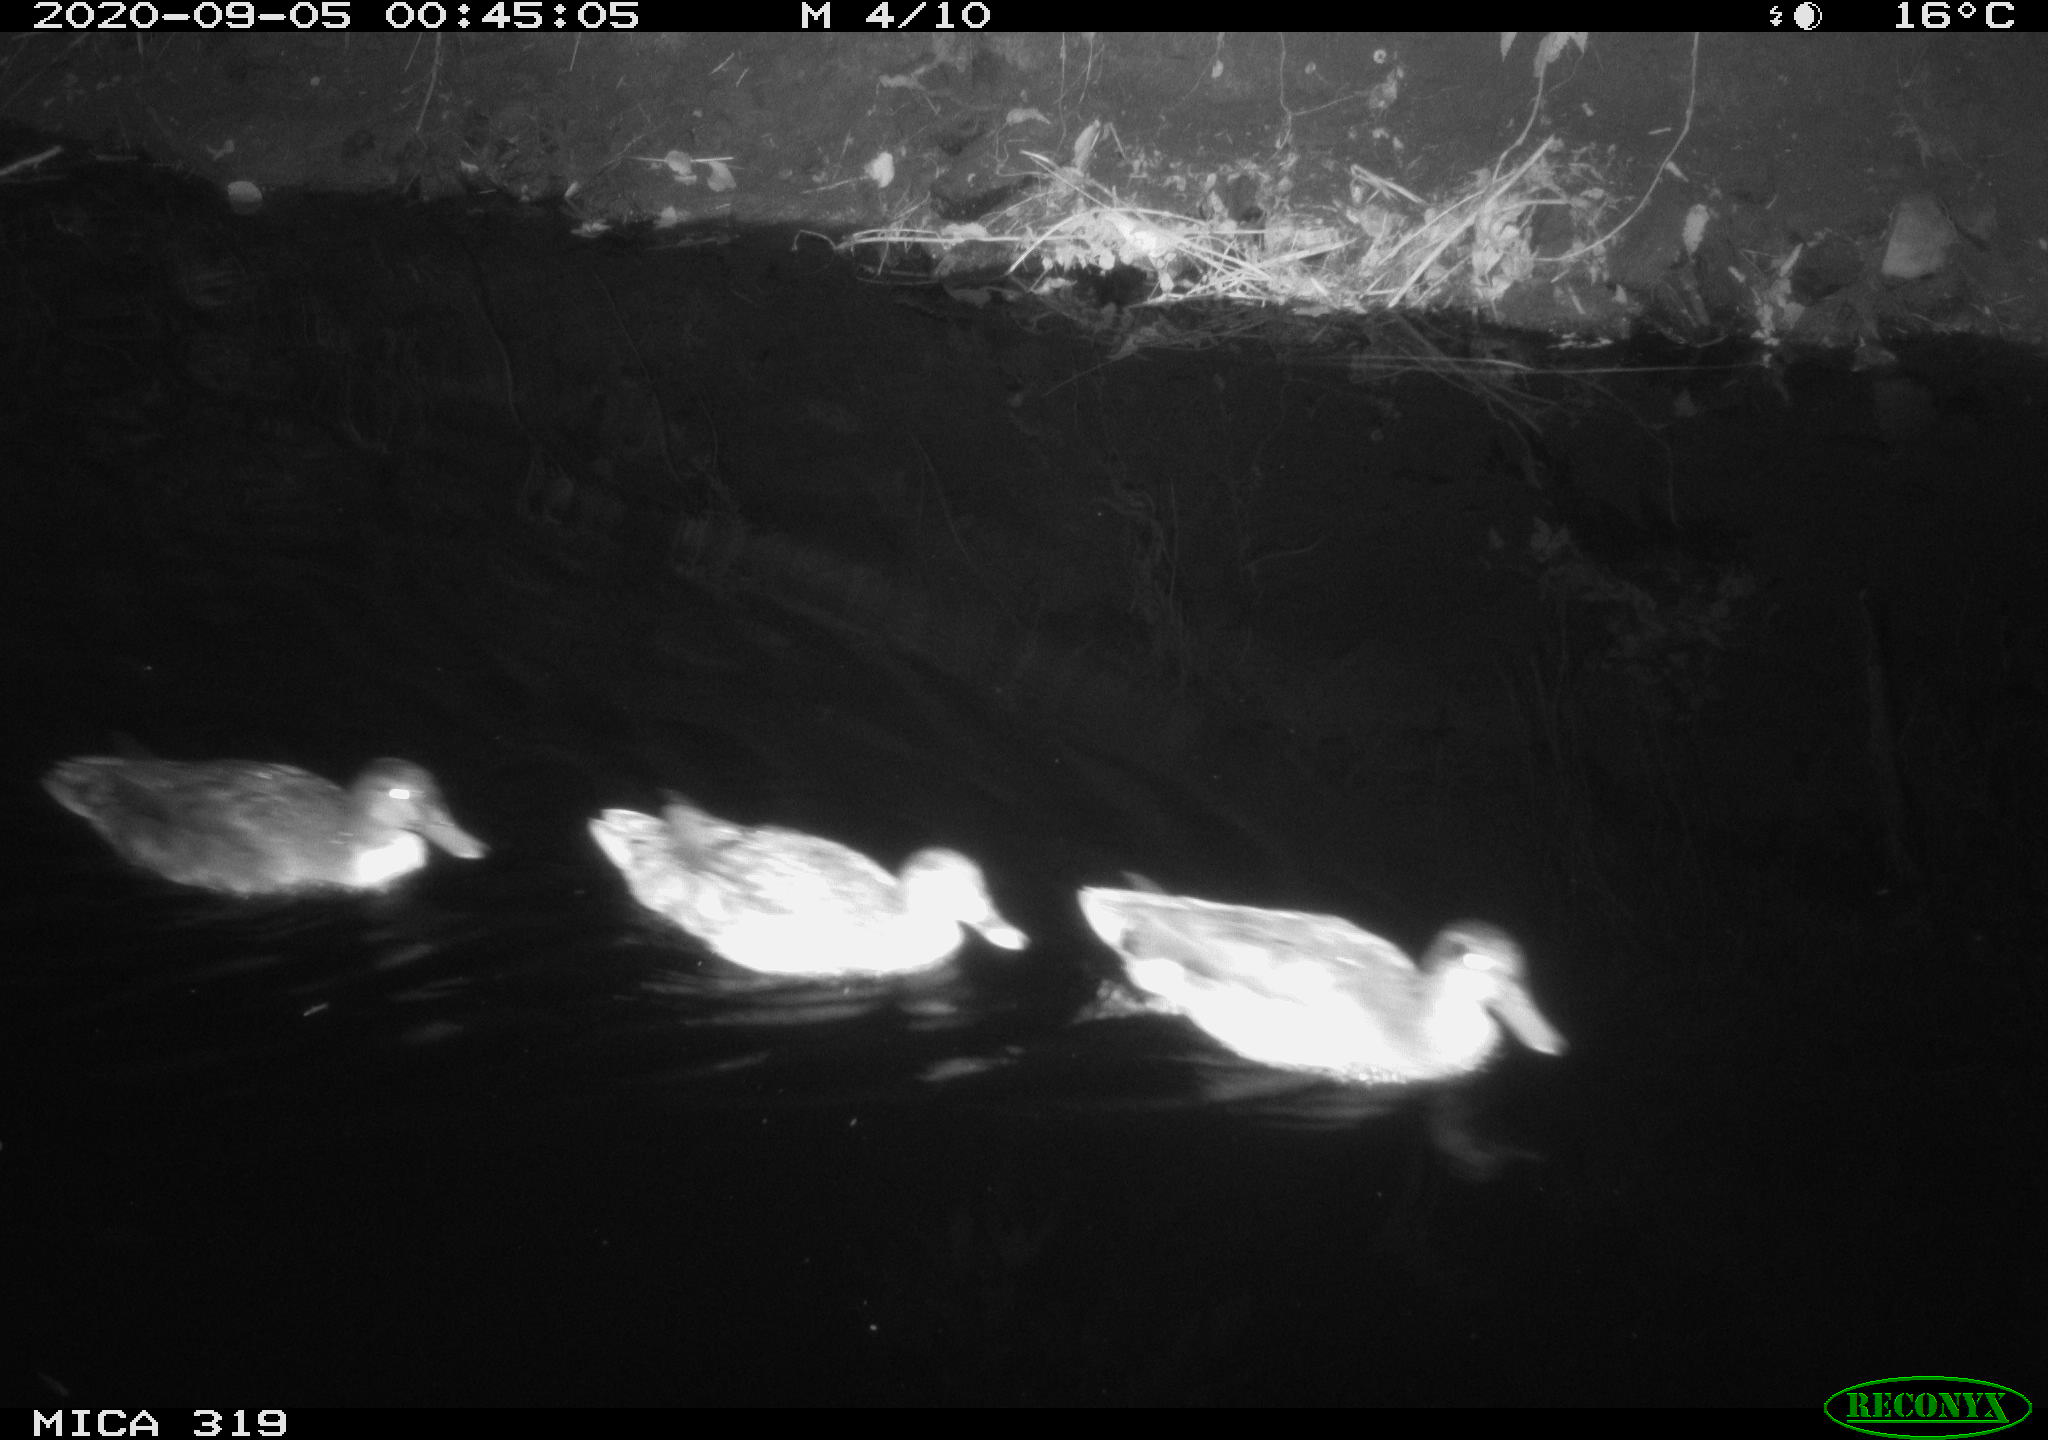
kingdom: Animalia
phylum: Chordata
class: Aves
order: Anseriformes
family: Anatidae
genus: Anas
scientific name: Anas platyrhynchos
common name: Mallard
